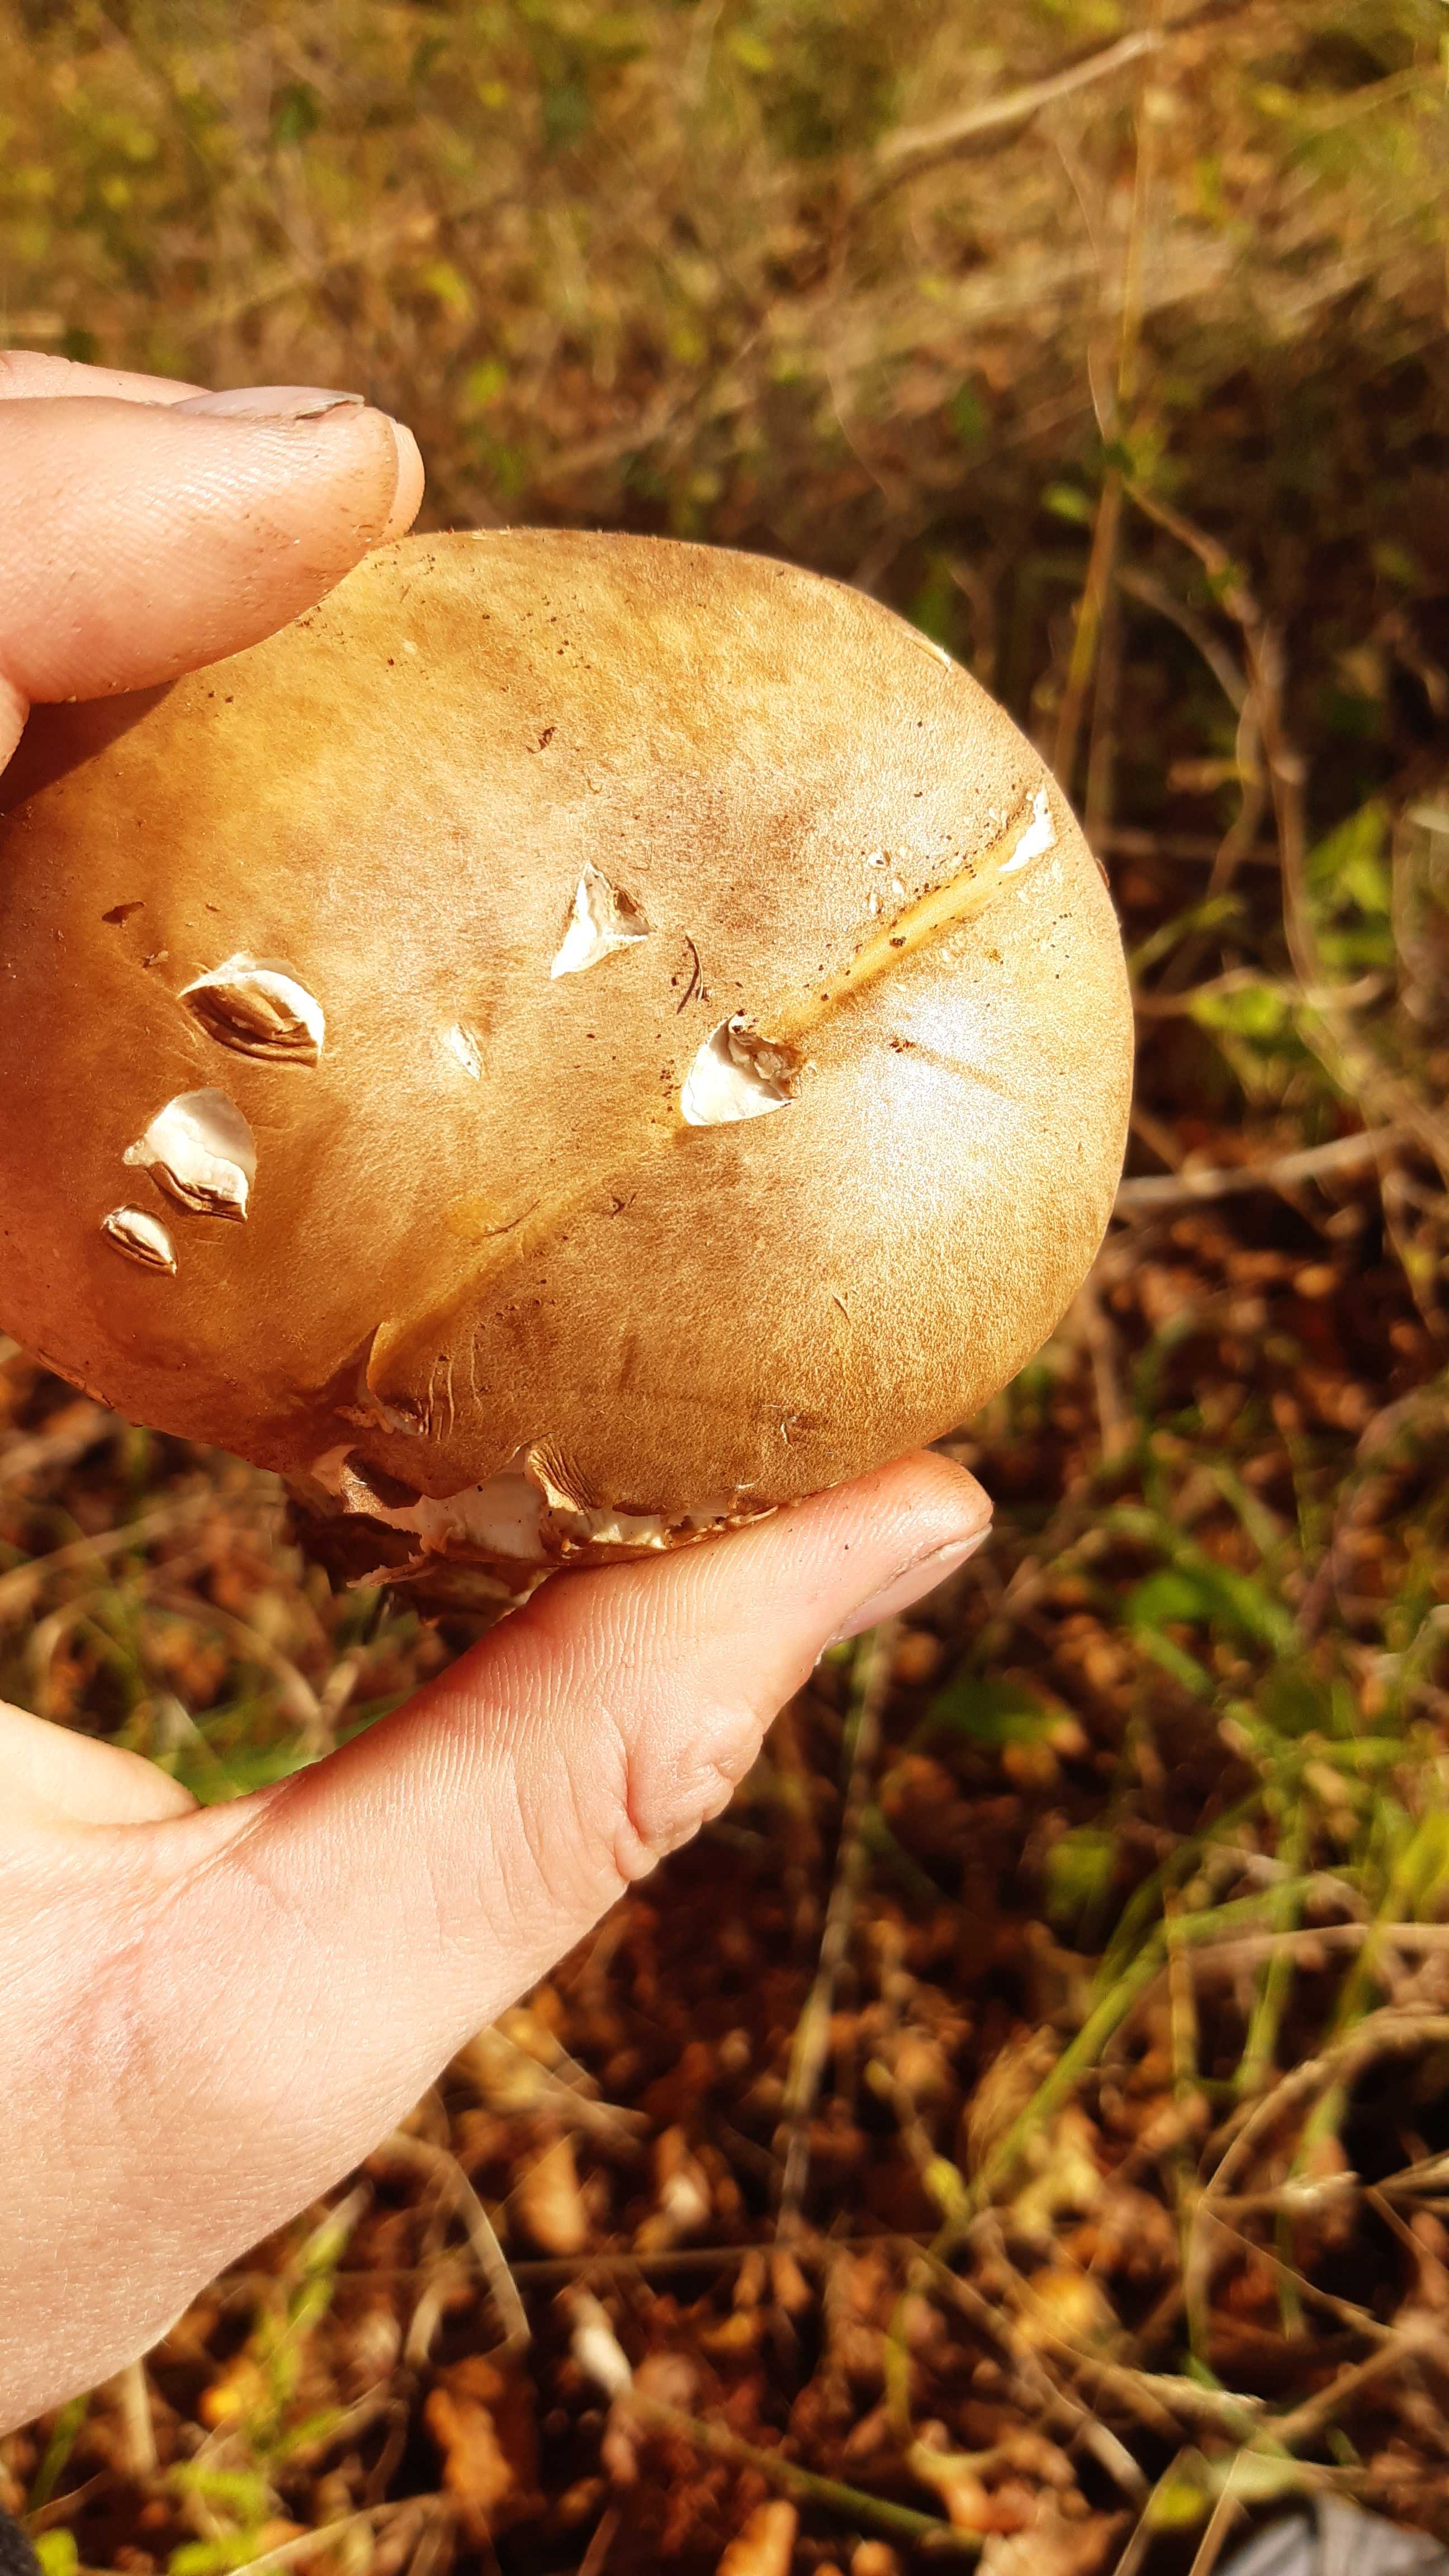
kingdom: Fungi
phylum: Basidiomycota
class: Agaricomycetes
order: Boletales
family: Boletaceae
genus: Boletus
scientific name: Boletus reticulatus
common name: sommer-rørhat
